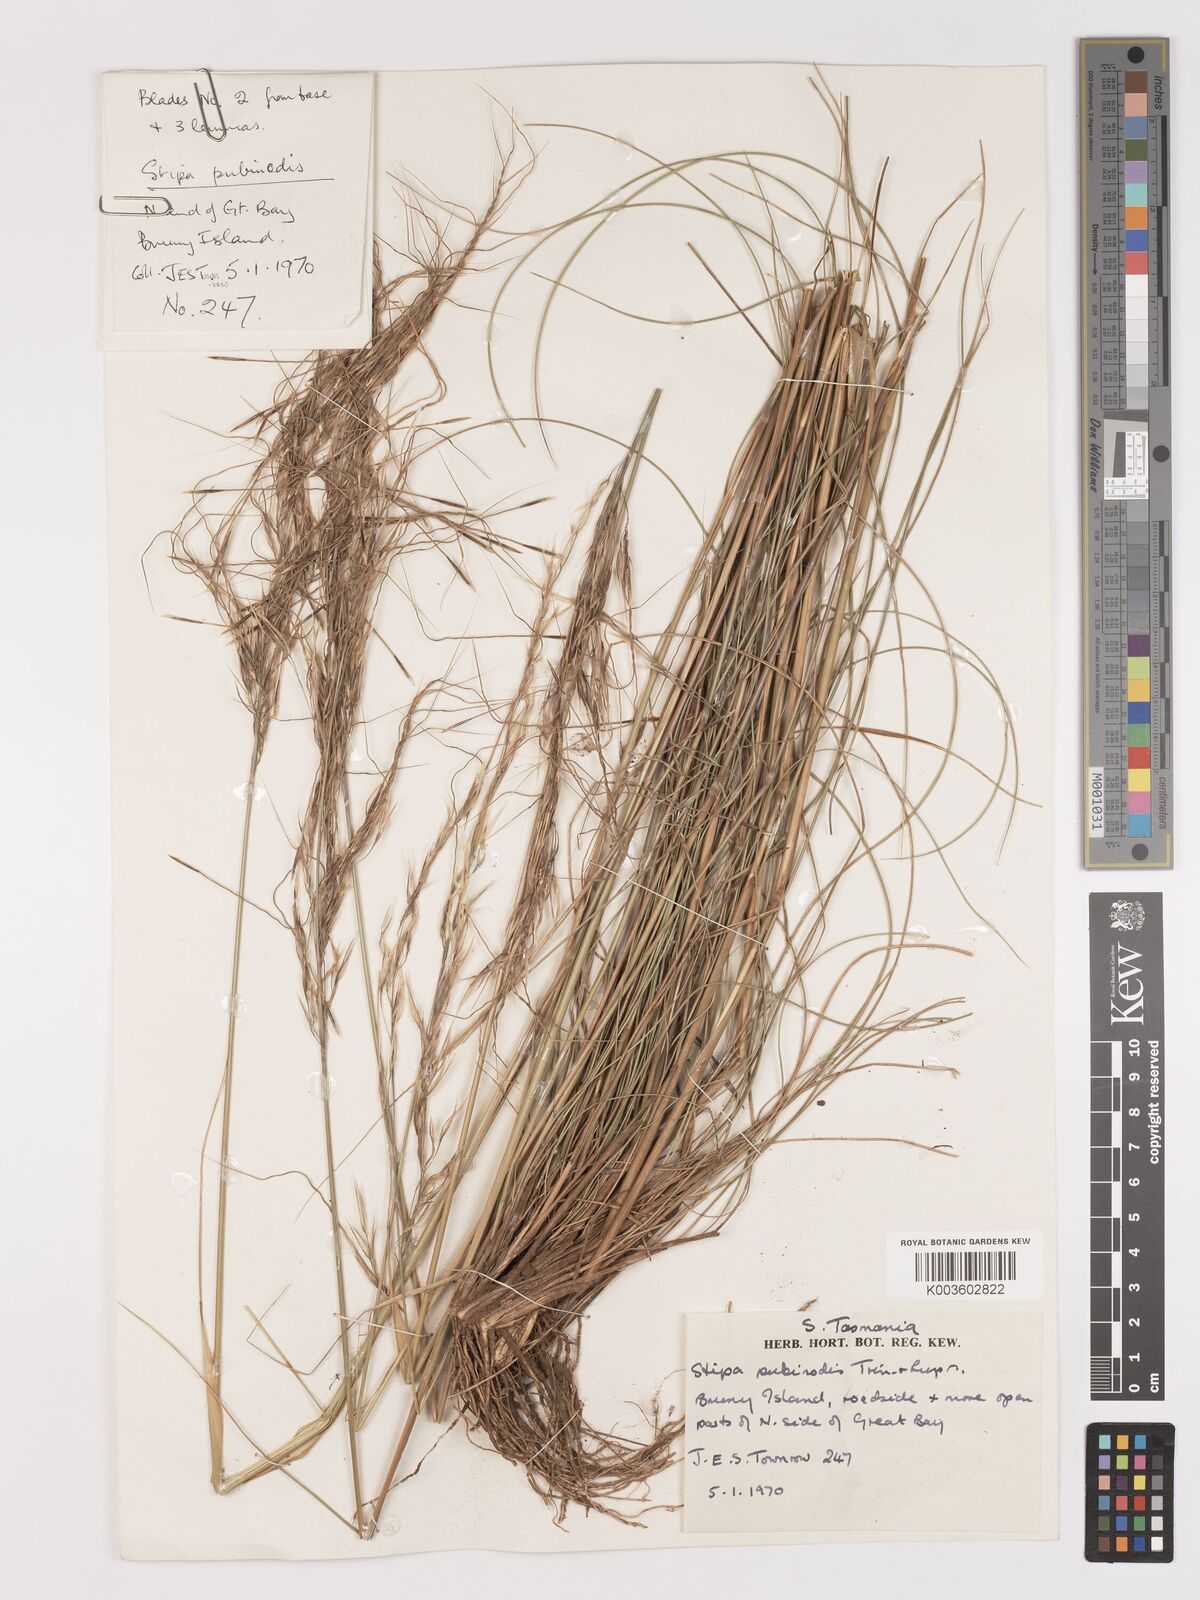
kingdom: Plantae
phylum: Tracheophyta
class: Liliopsida
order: Poales
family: Poaceae
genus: Austrostipa
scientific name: Austrostipa pubinodis
